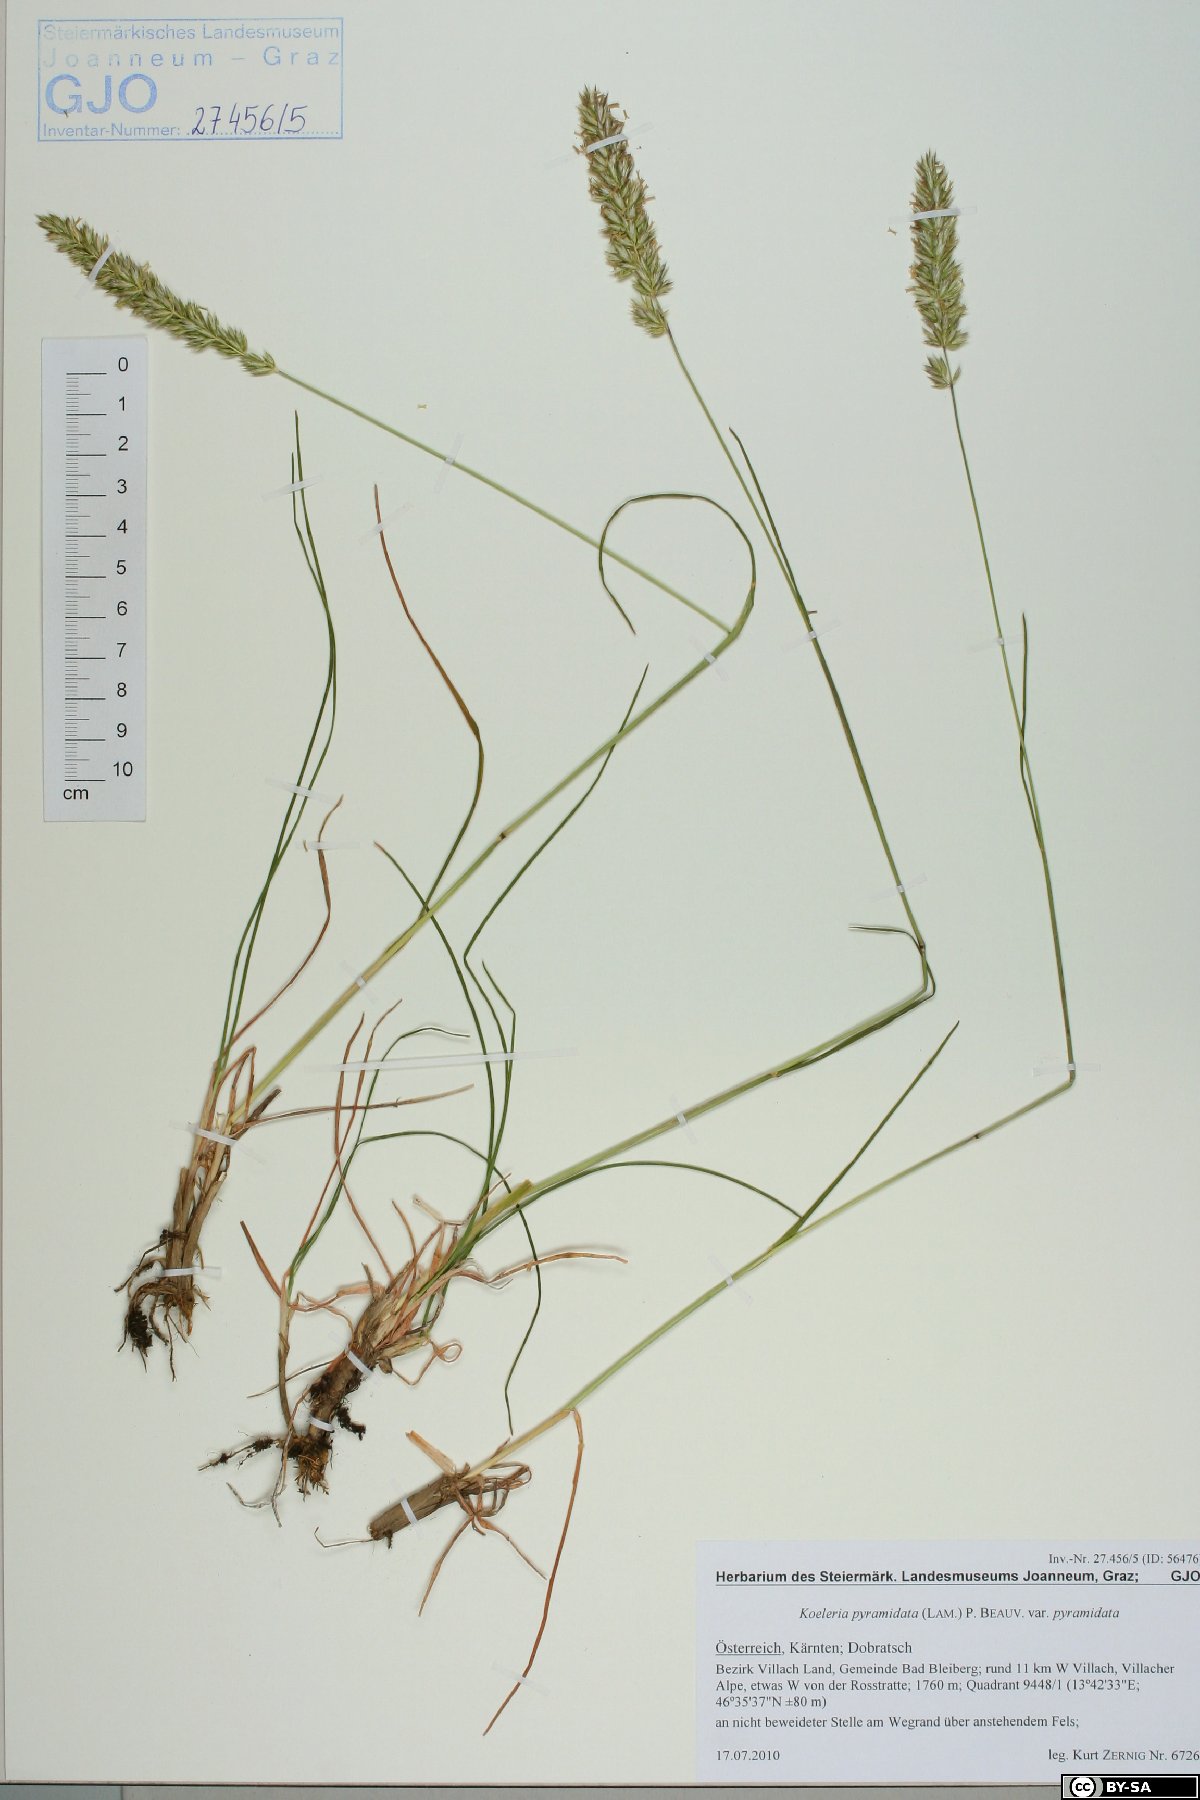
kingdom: Plantae
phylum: Tracheophyta
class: Liliopsida
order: Poales
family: Poaceae
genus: Koeleria
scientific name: Koeleria pyramidata
